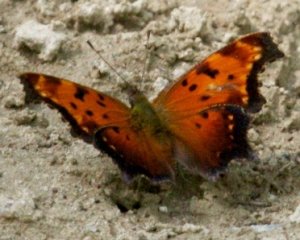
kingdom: Animalia
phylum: Arthropoda
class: Insecta
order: Lepidoptera
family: Nymphalidae
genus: Polygonia
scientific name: Polygonia progne
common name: Gray Comma
